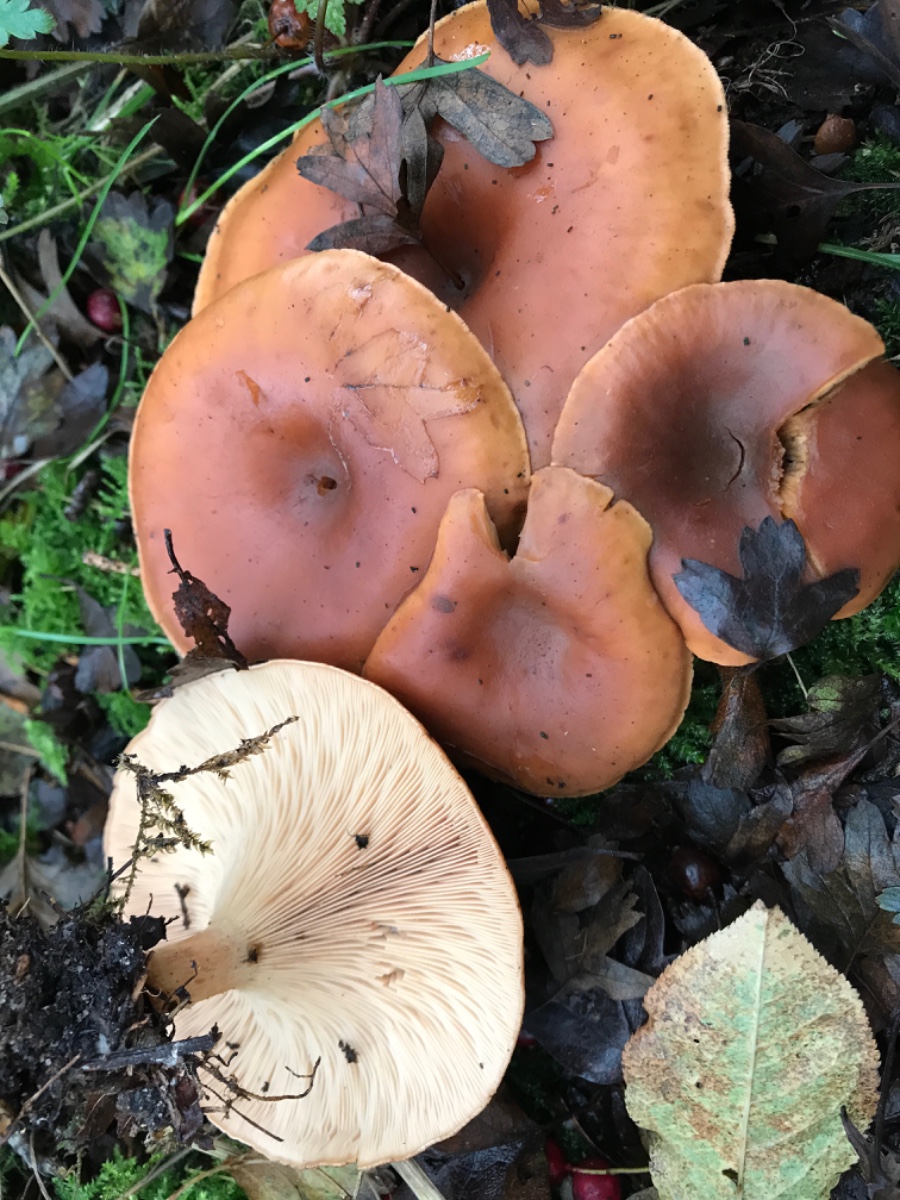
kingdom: Fungi
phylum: Basidiomycota
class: Agaricomycetes
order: Agaricales
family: Tricholomataceae
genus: Paralepista
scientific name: Paralepista flaccida
